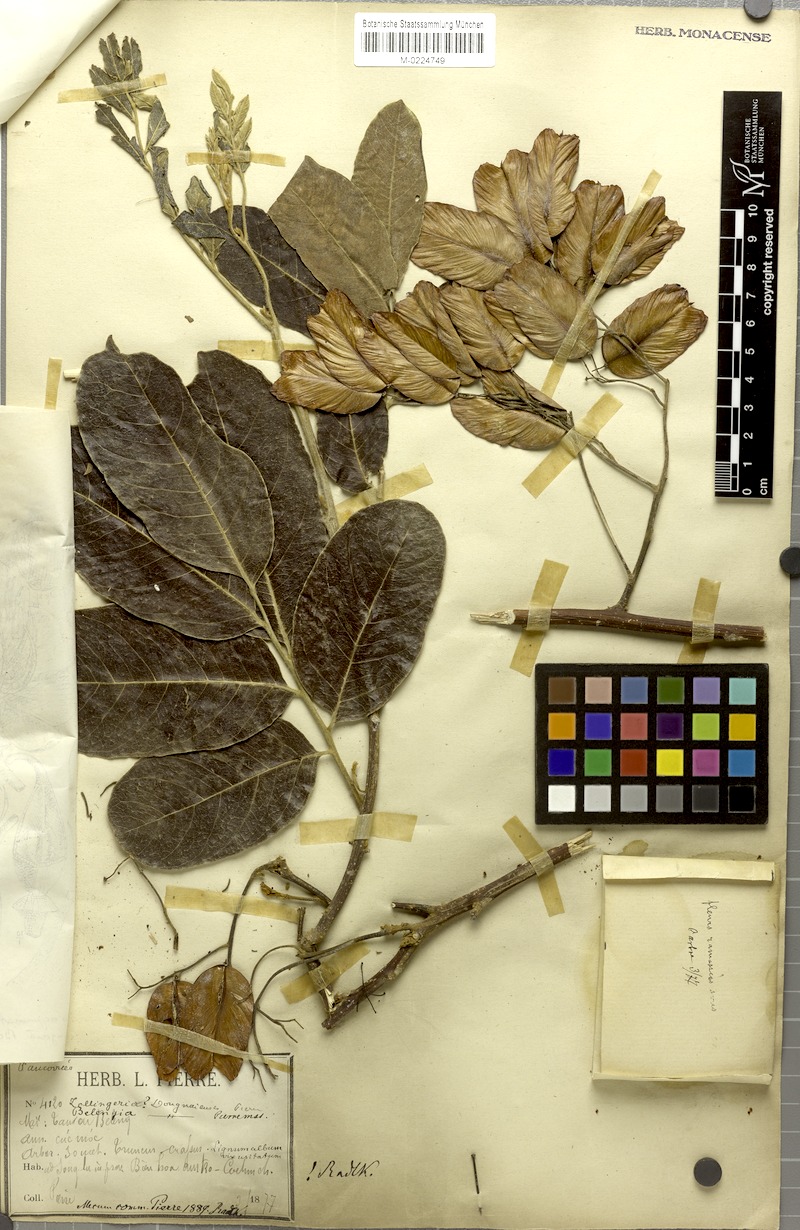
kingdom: Plantae
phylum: Tracheophyta
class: Magnoliopsida
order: Sapindales
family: Sapindaceae
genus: Zollingeria
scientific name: Zollingeria dongnaiensis
